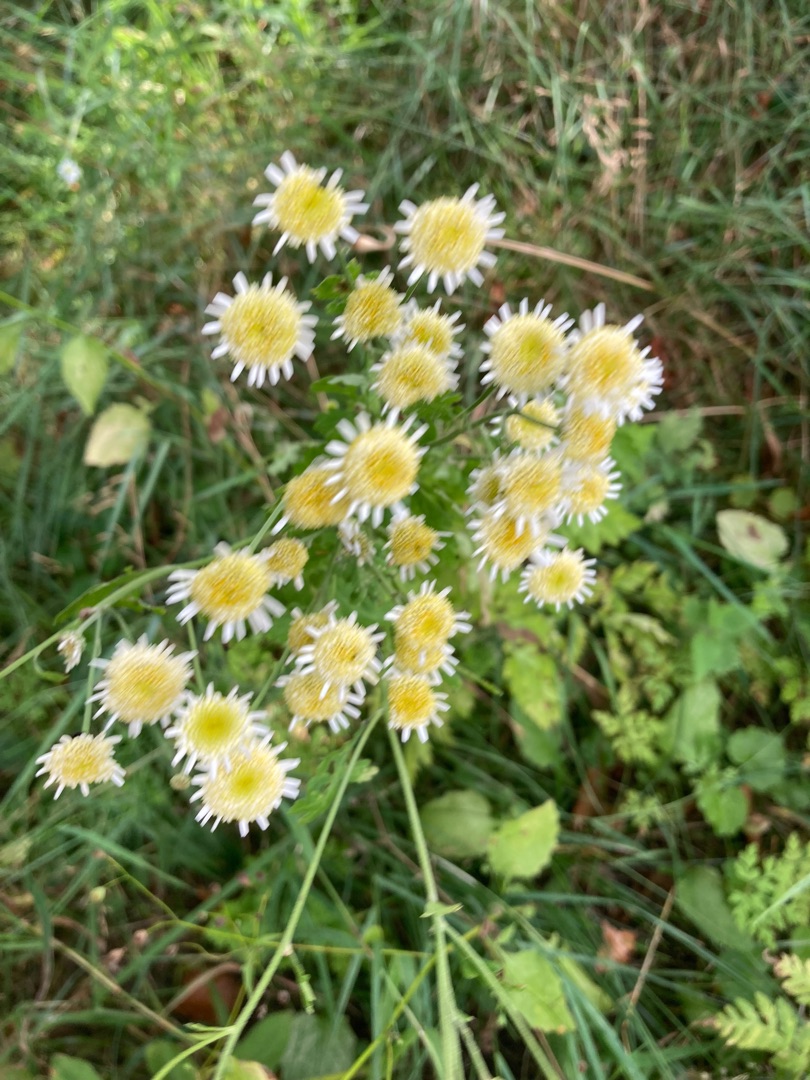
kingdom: Plantae
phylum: Tracheophyta
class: Magnoliopsida
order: Asterales
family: Asteraceae
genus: Tanacetum
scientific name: Tanacetum parthenium
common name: Matrem
